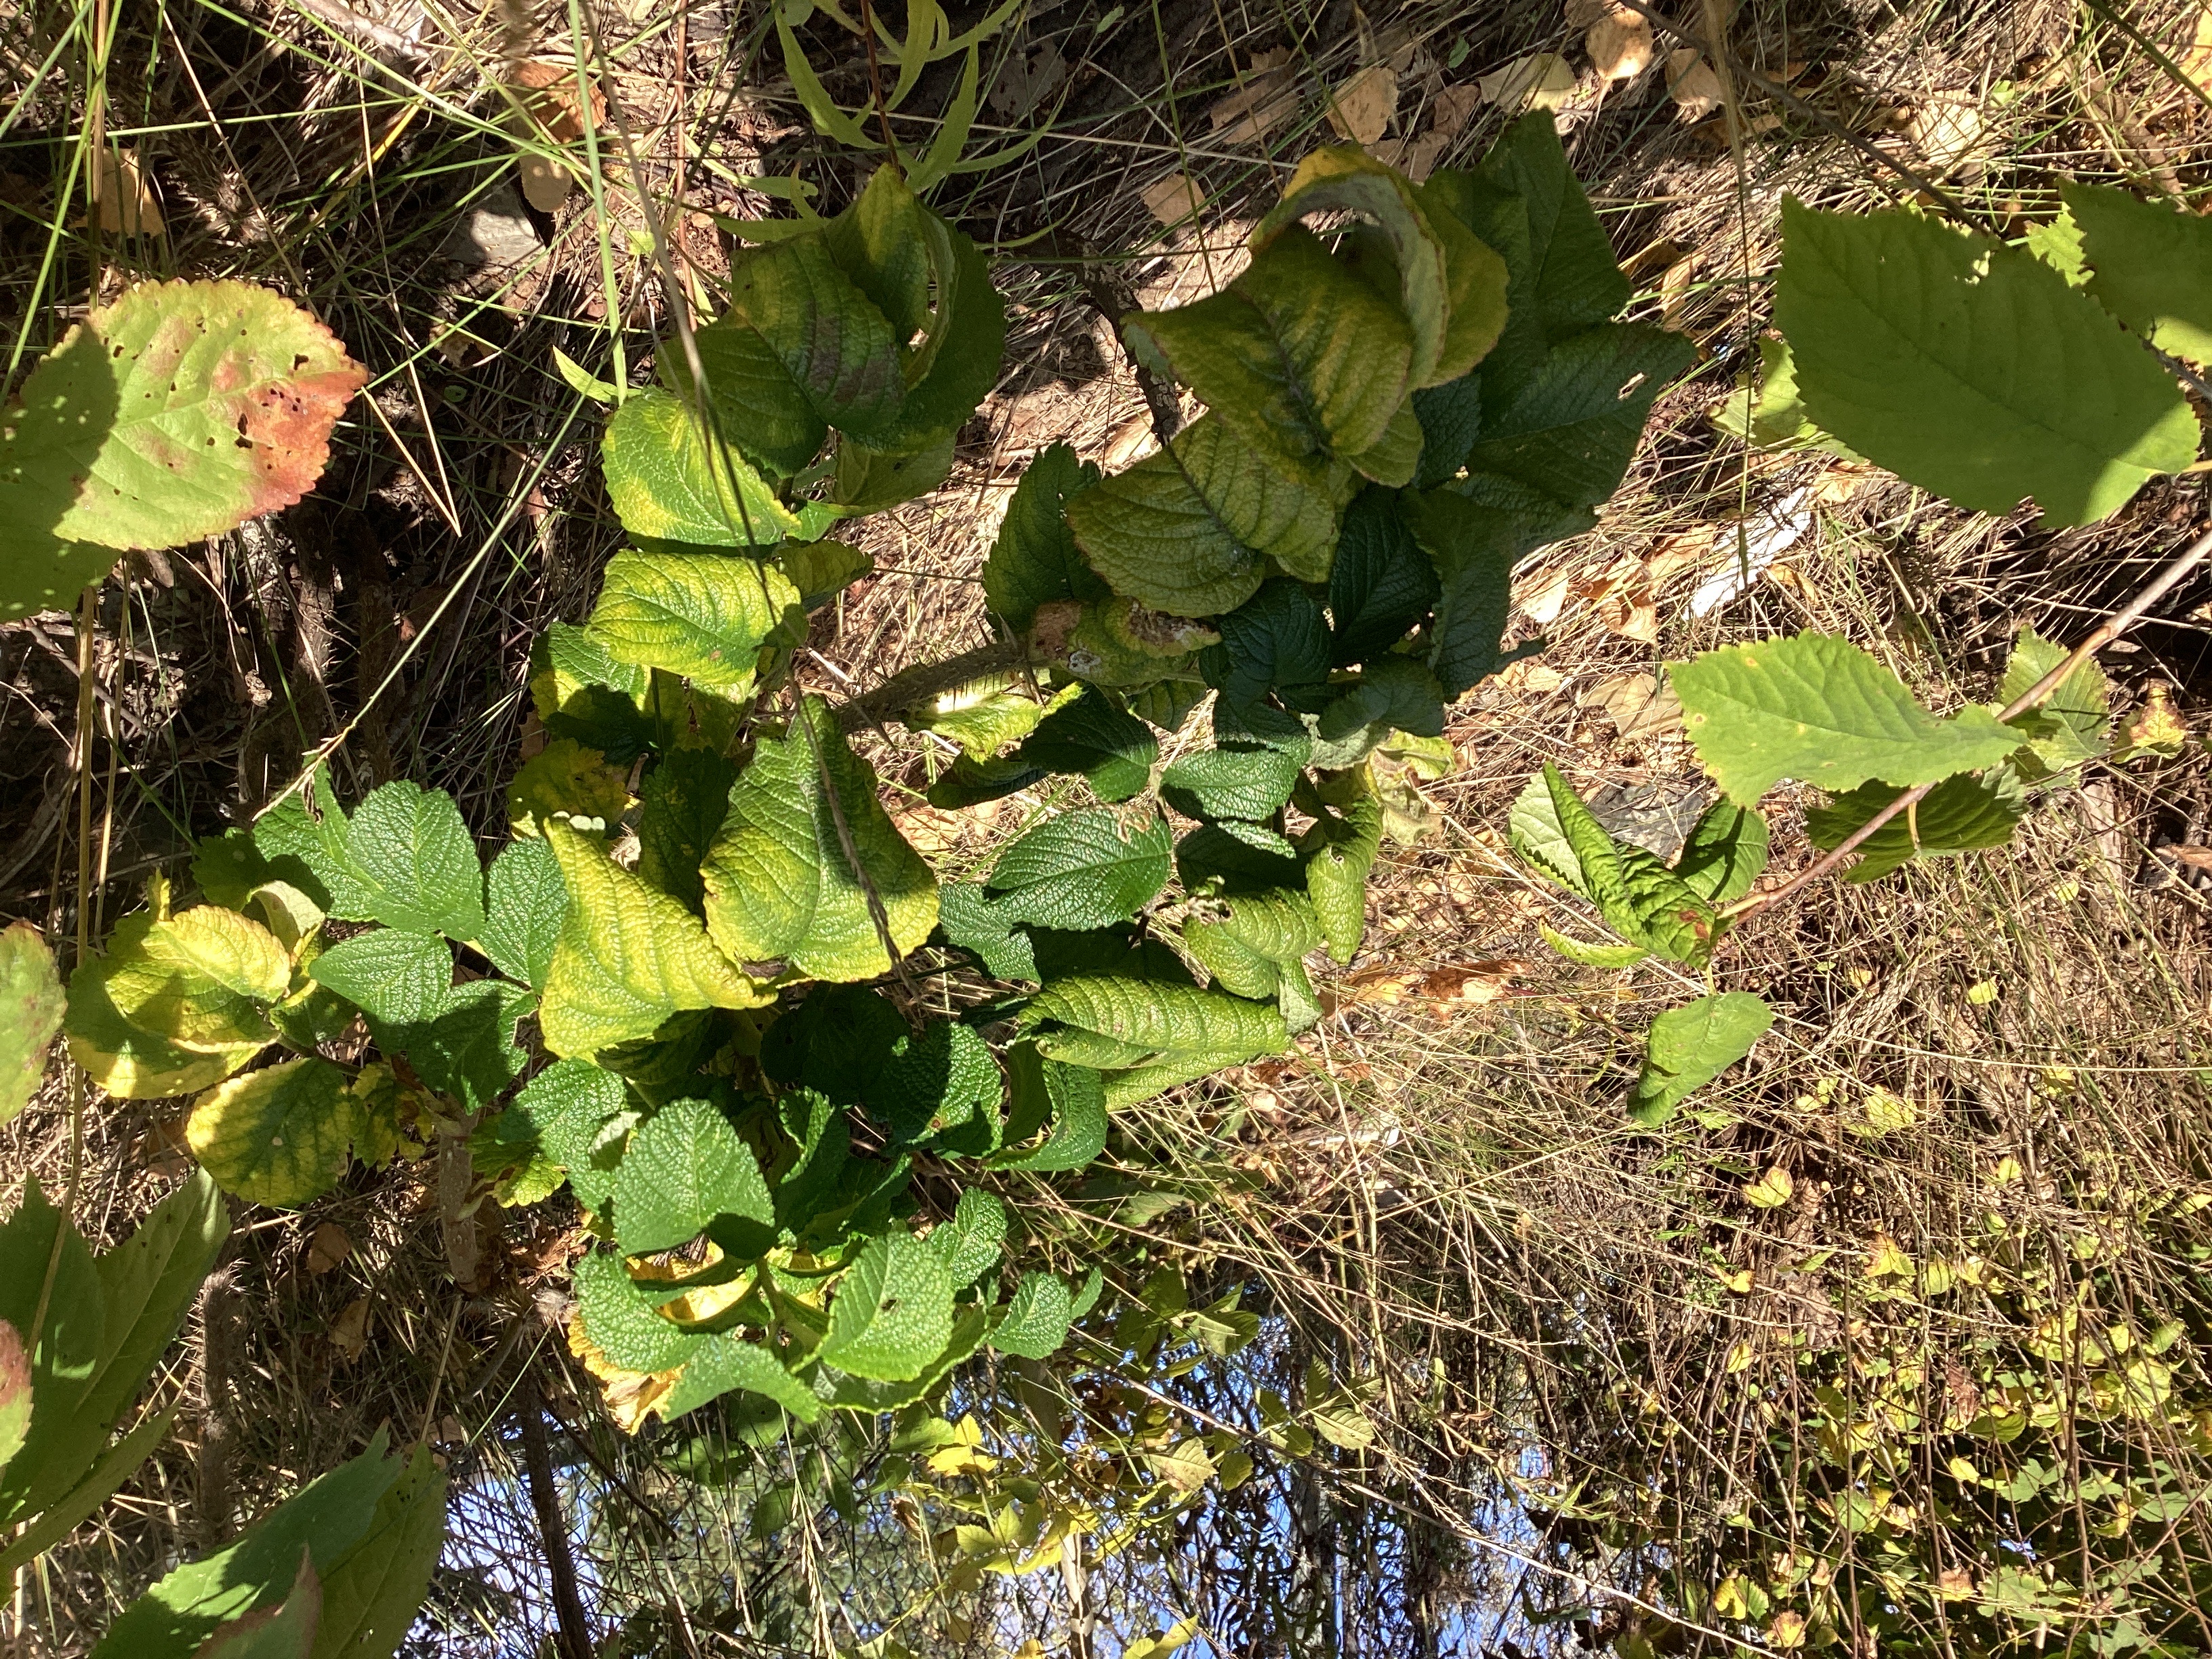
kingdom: Plantae
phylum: Tracheophyta
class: Magnoliopsida
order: Rosales
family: Rosaceae
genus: Rosa
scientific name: Rosa rugosa
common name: rynkerose
